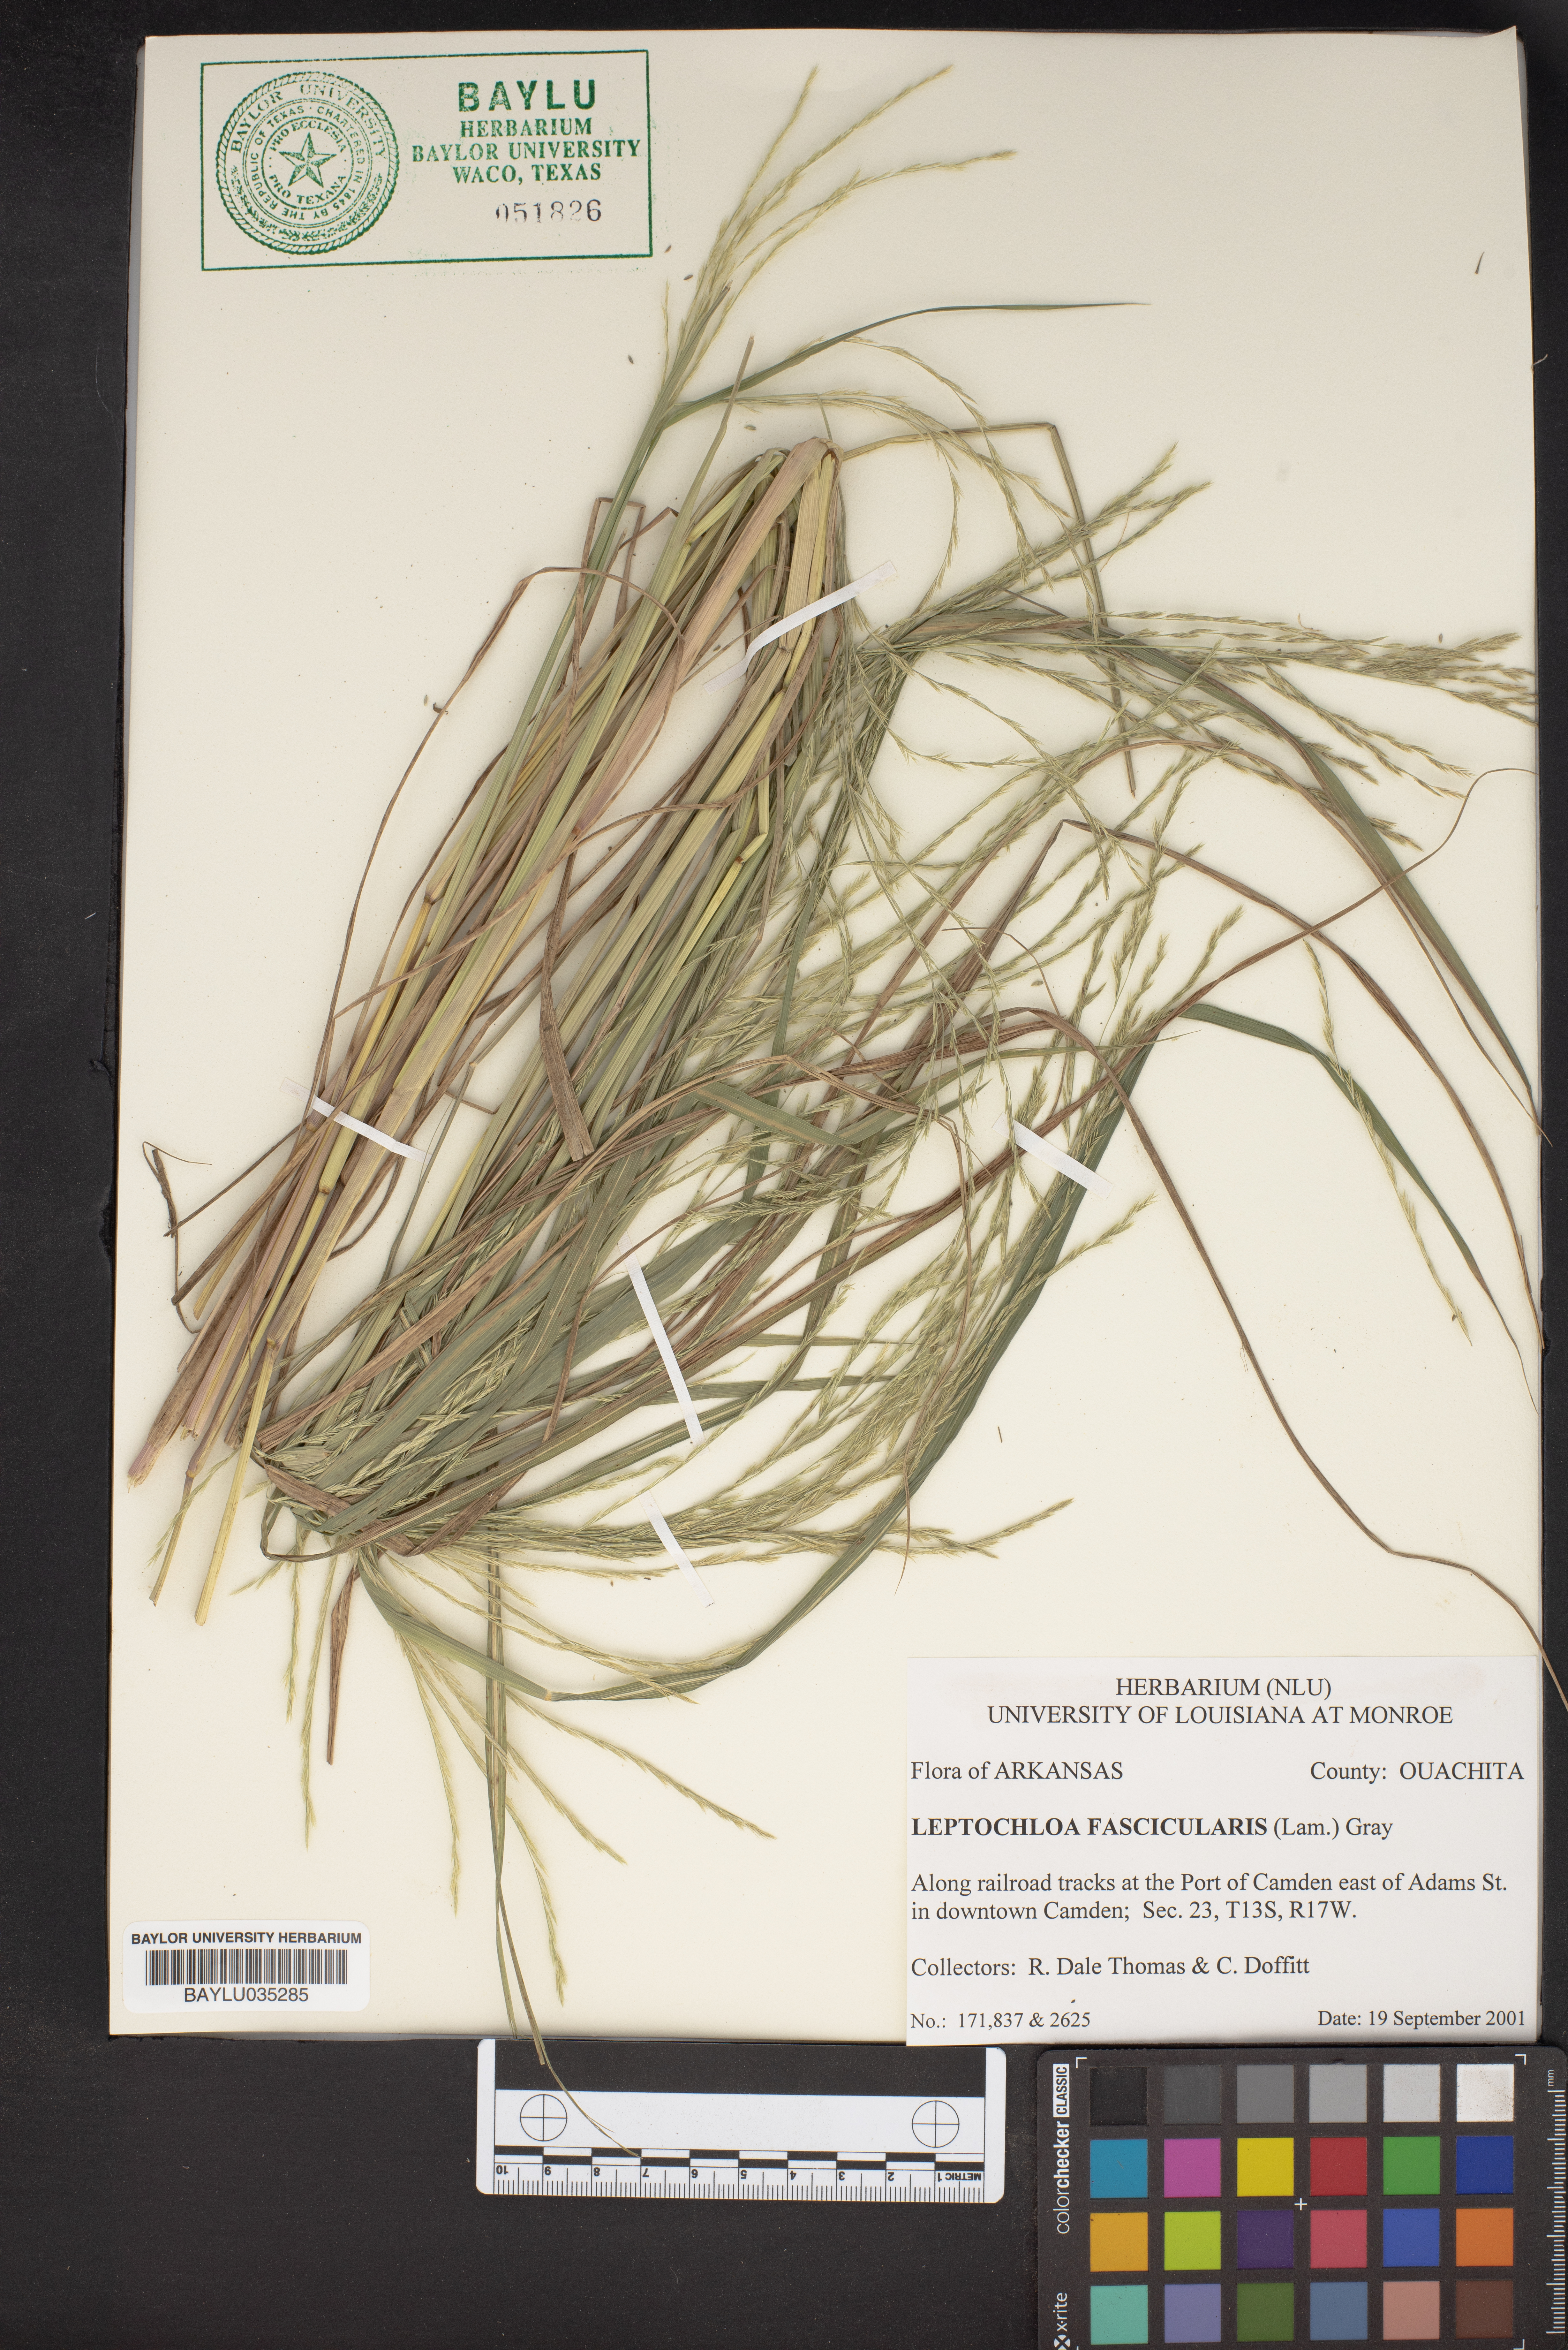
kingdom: Plantae
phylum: Tracheophyta
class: Liliopsida
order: Poales
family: Poaceae
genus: Diplachne
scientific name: Diplachne fusca
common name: Brown beetle grass
